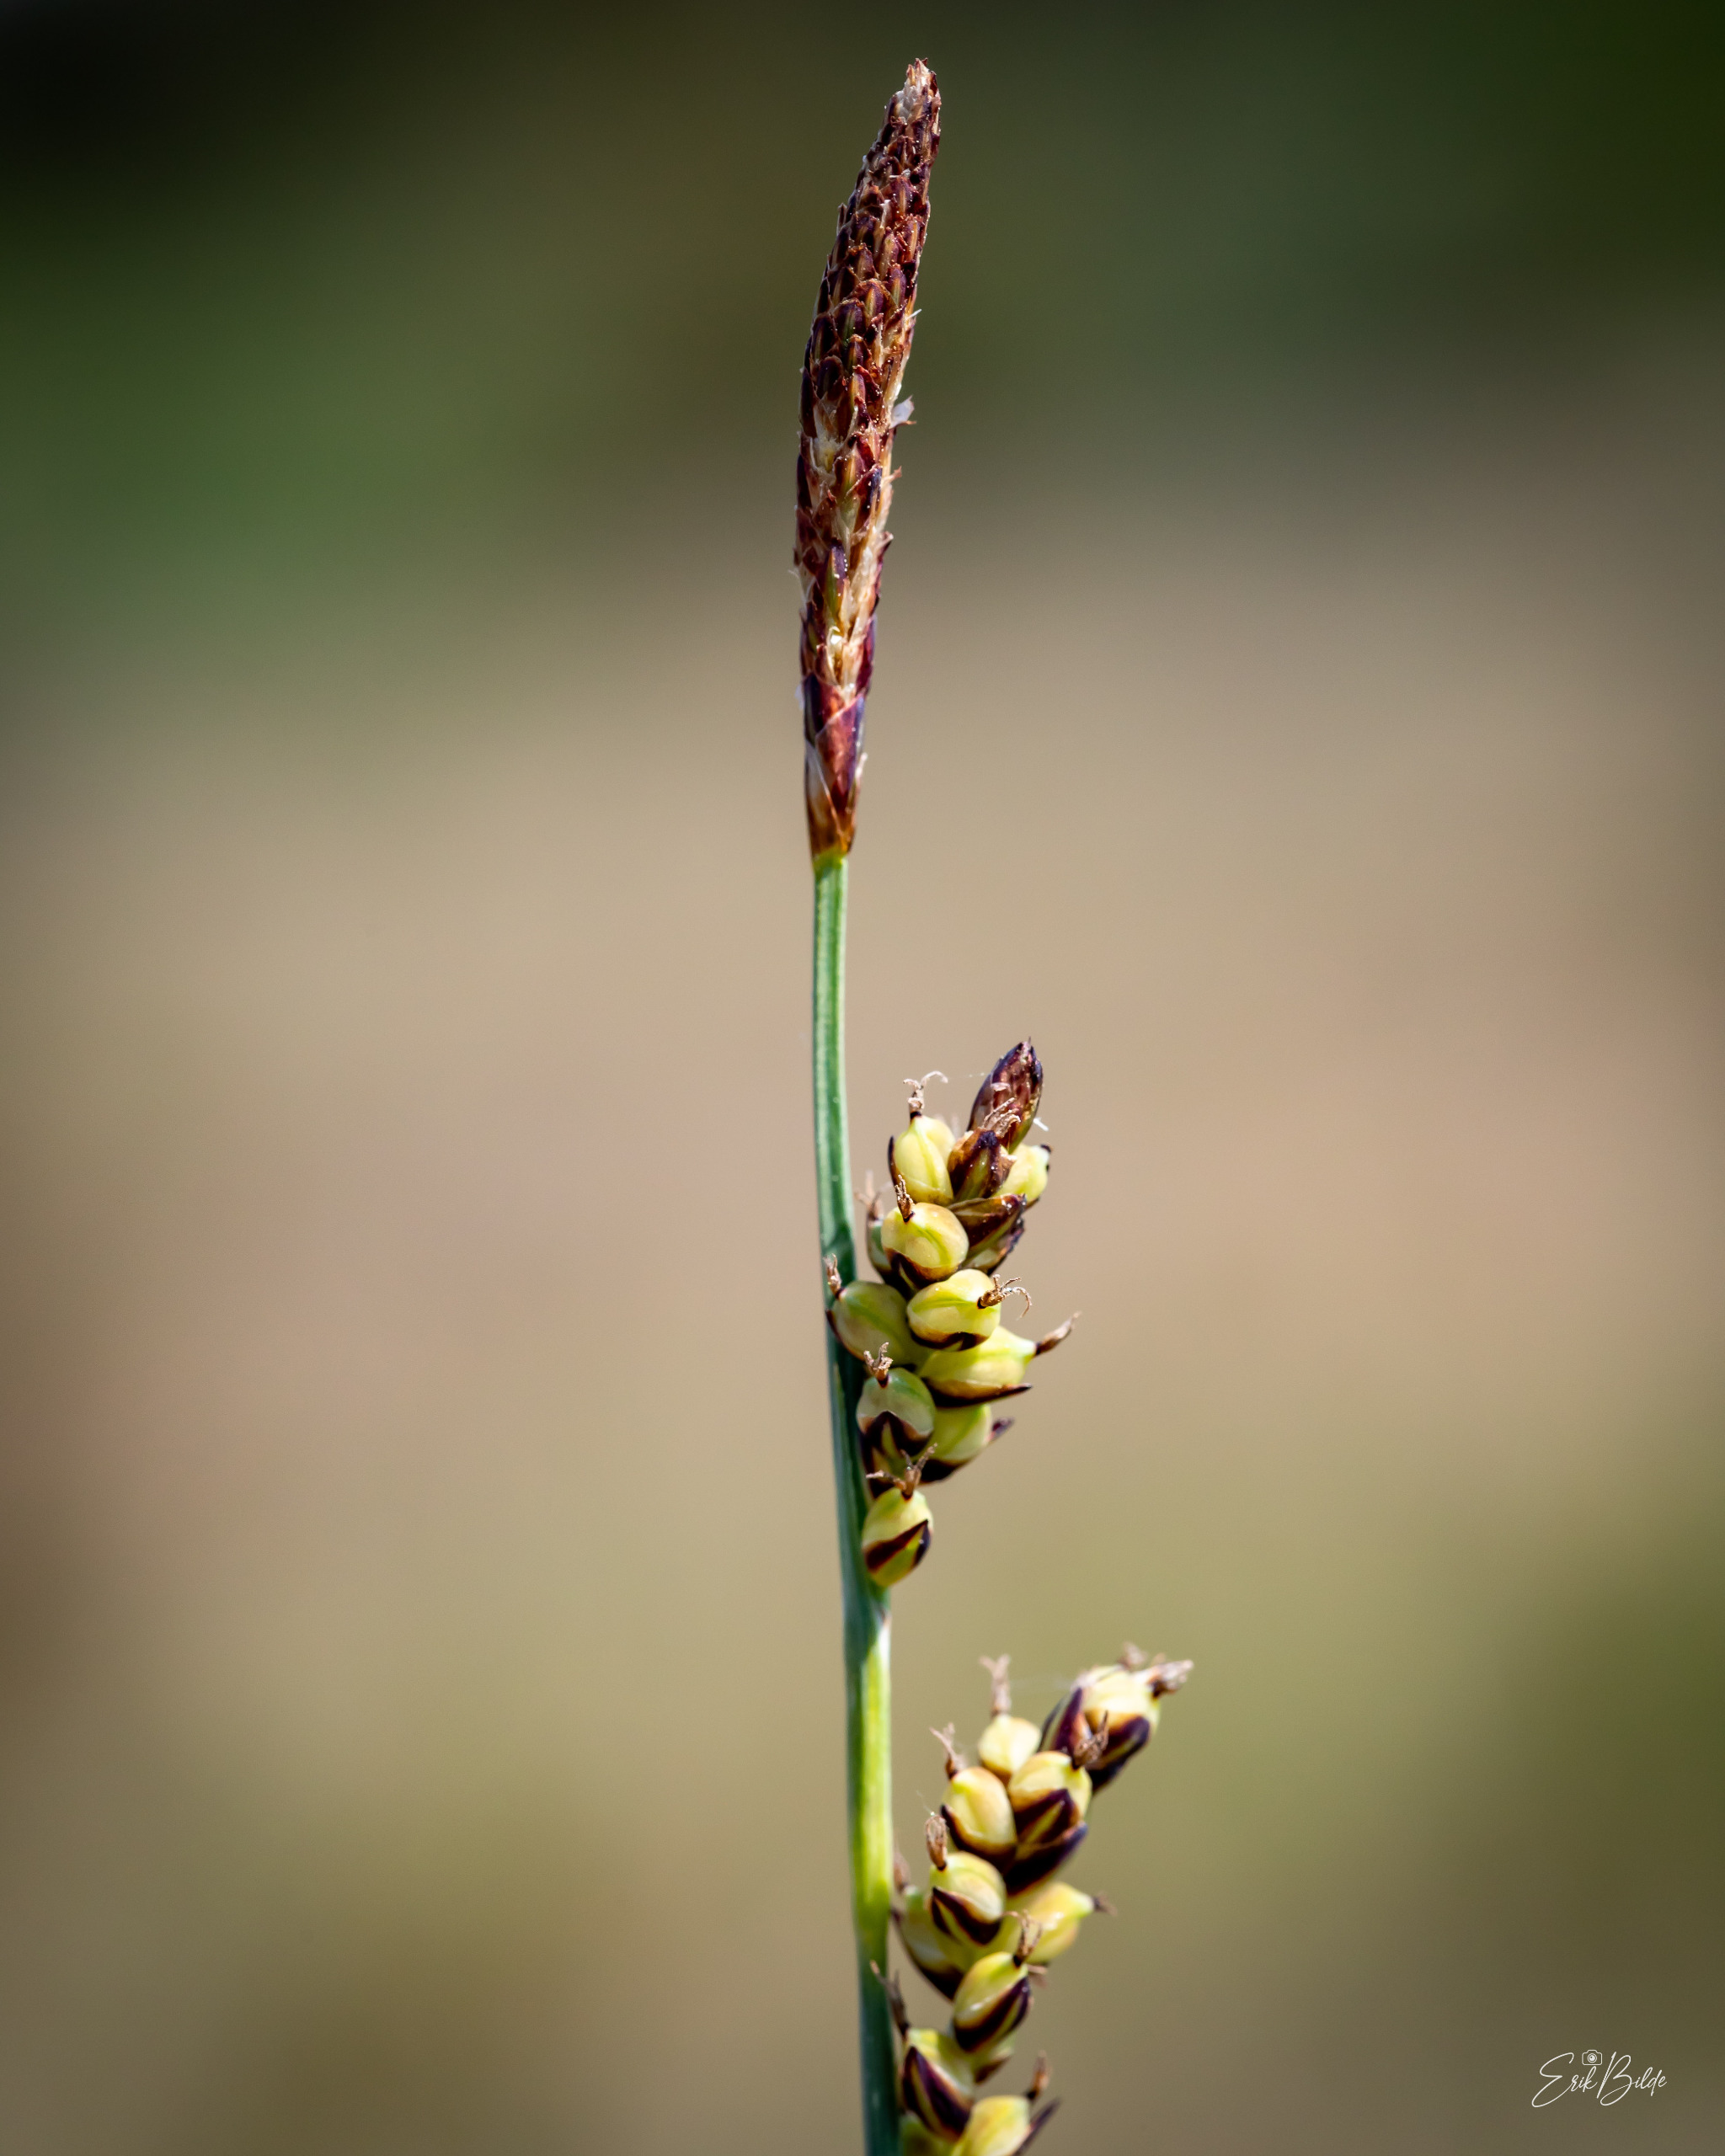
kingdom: Plantae
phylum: Tracheophyta
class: Liliopsida
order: Poales
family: Cyperaceae
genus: Carex
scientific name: Carex panicea
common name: Hirse-star
